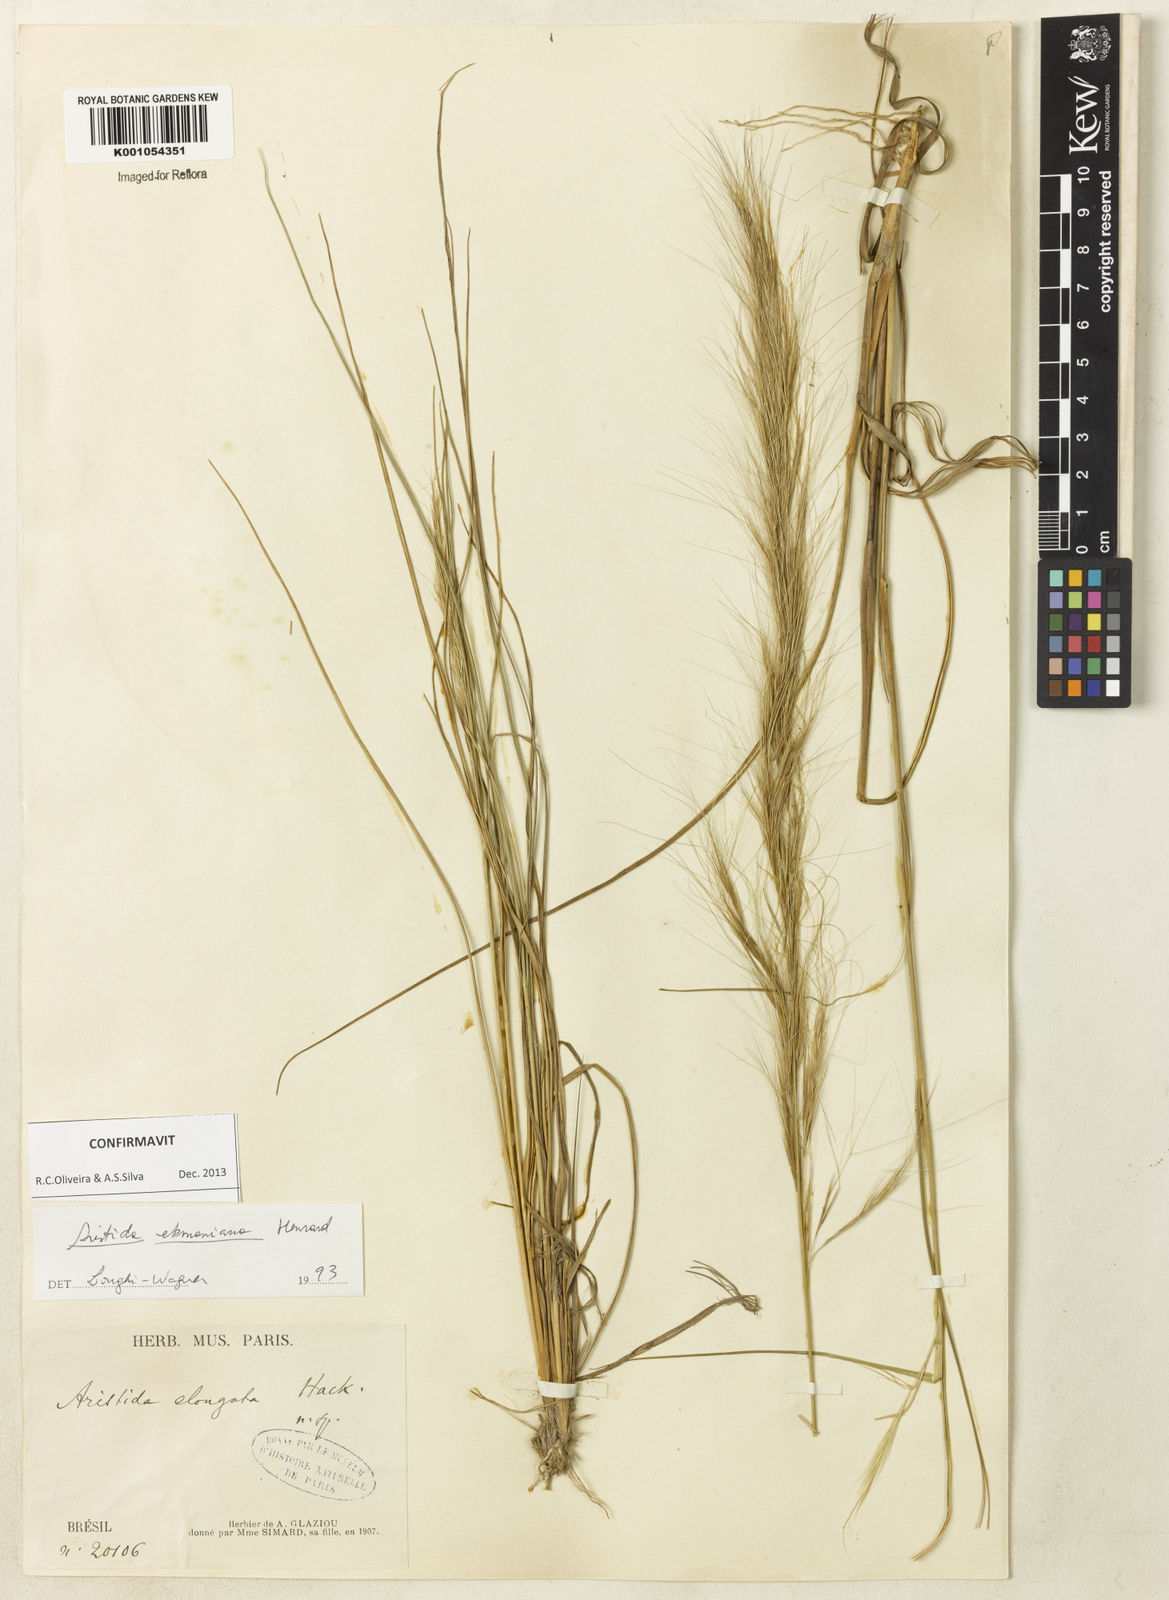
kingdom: Plantae
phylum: Tracheophyta
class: Liliopsida
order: Poales
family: Poaceae
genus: Aristida
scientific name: Aristida ekmaniana
